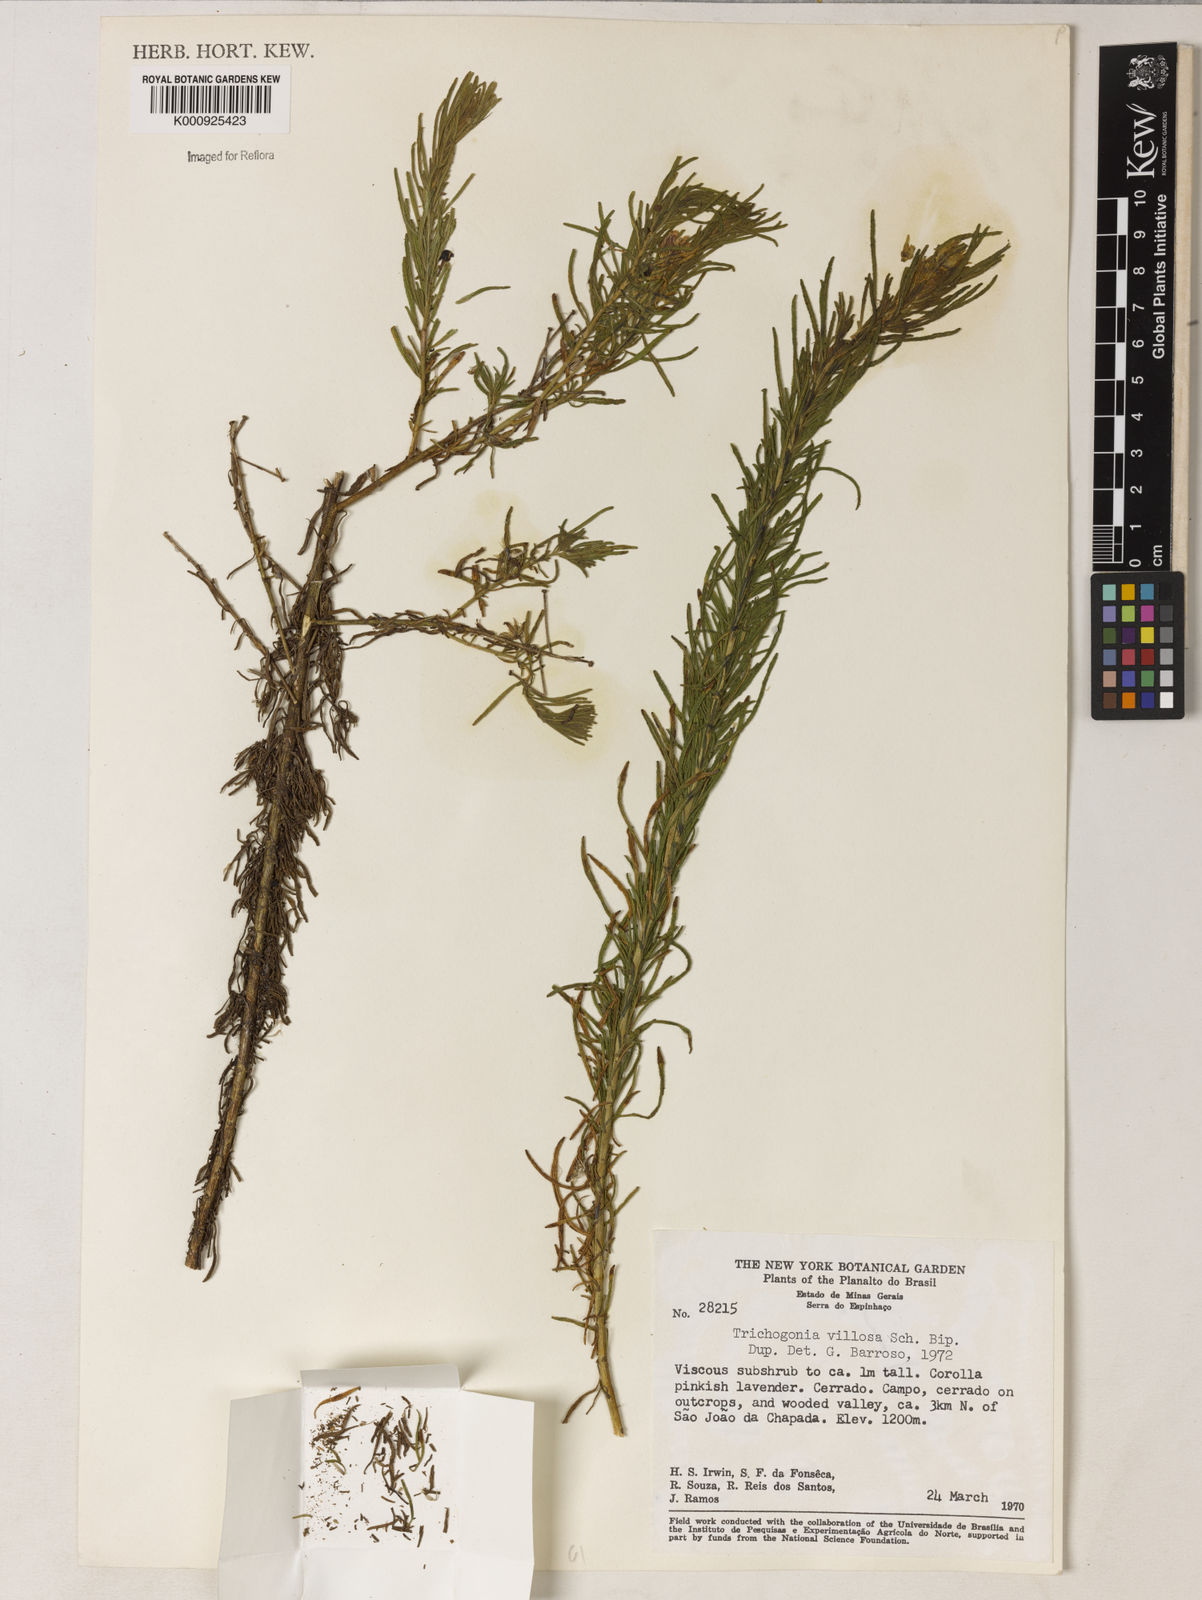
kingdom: Plantae
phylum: Tracheophyta
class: Magnoliopsida
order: Asterales
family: Asteraceae
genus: Trichogonia
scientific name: Trichogonia villosa
